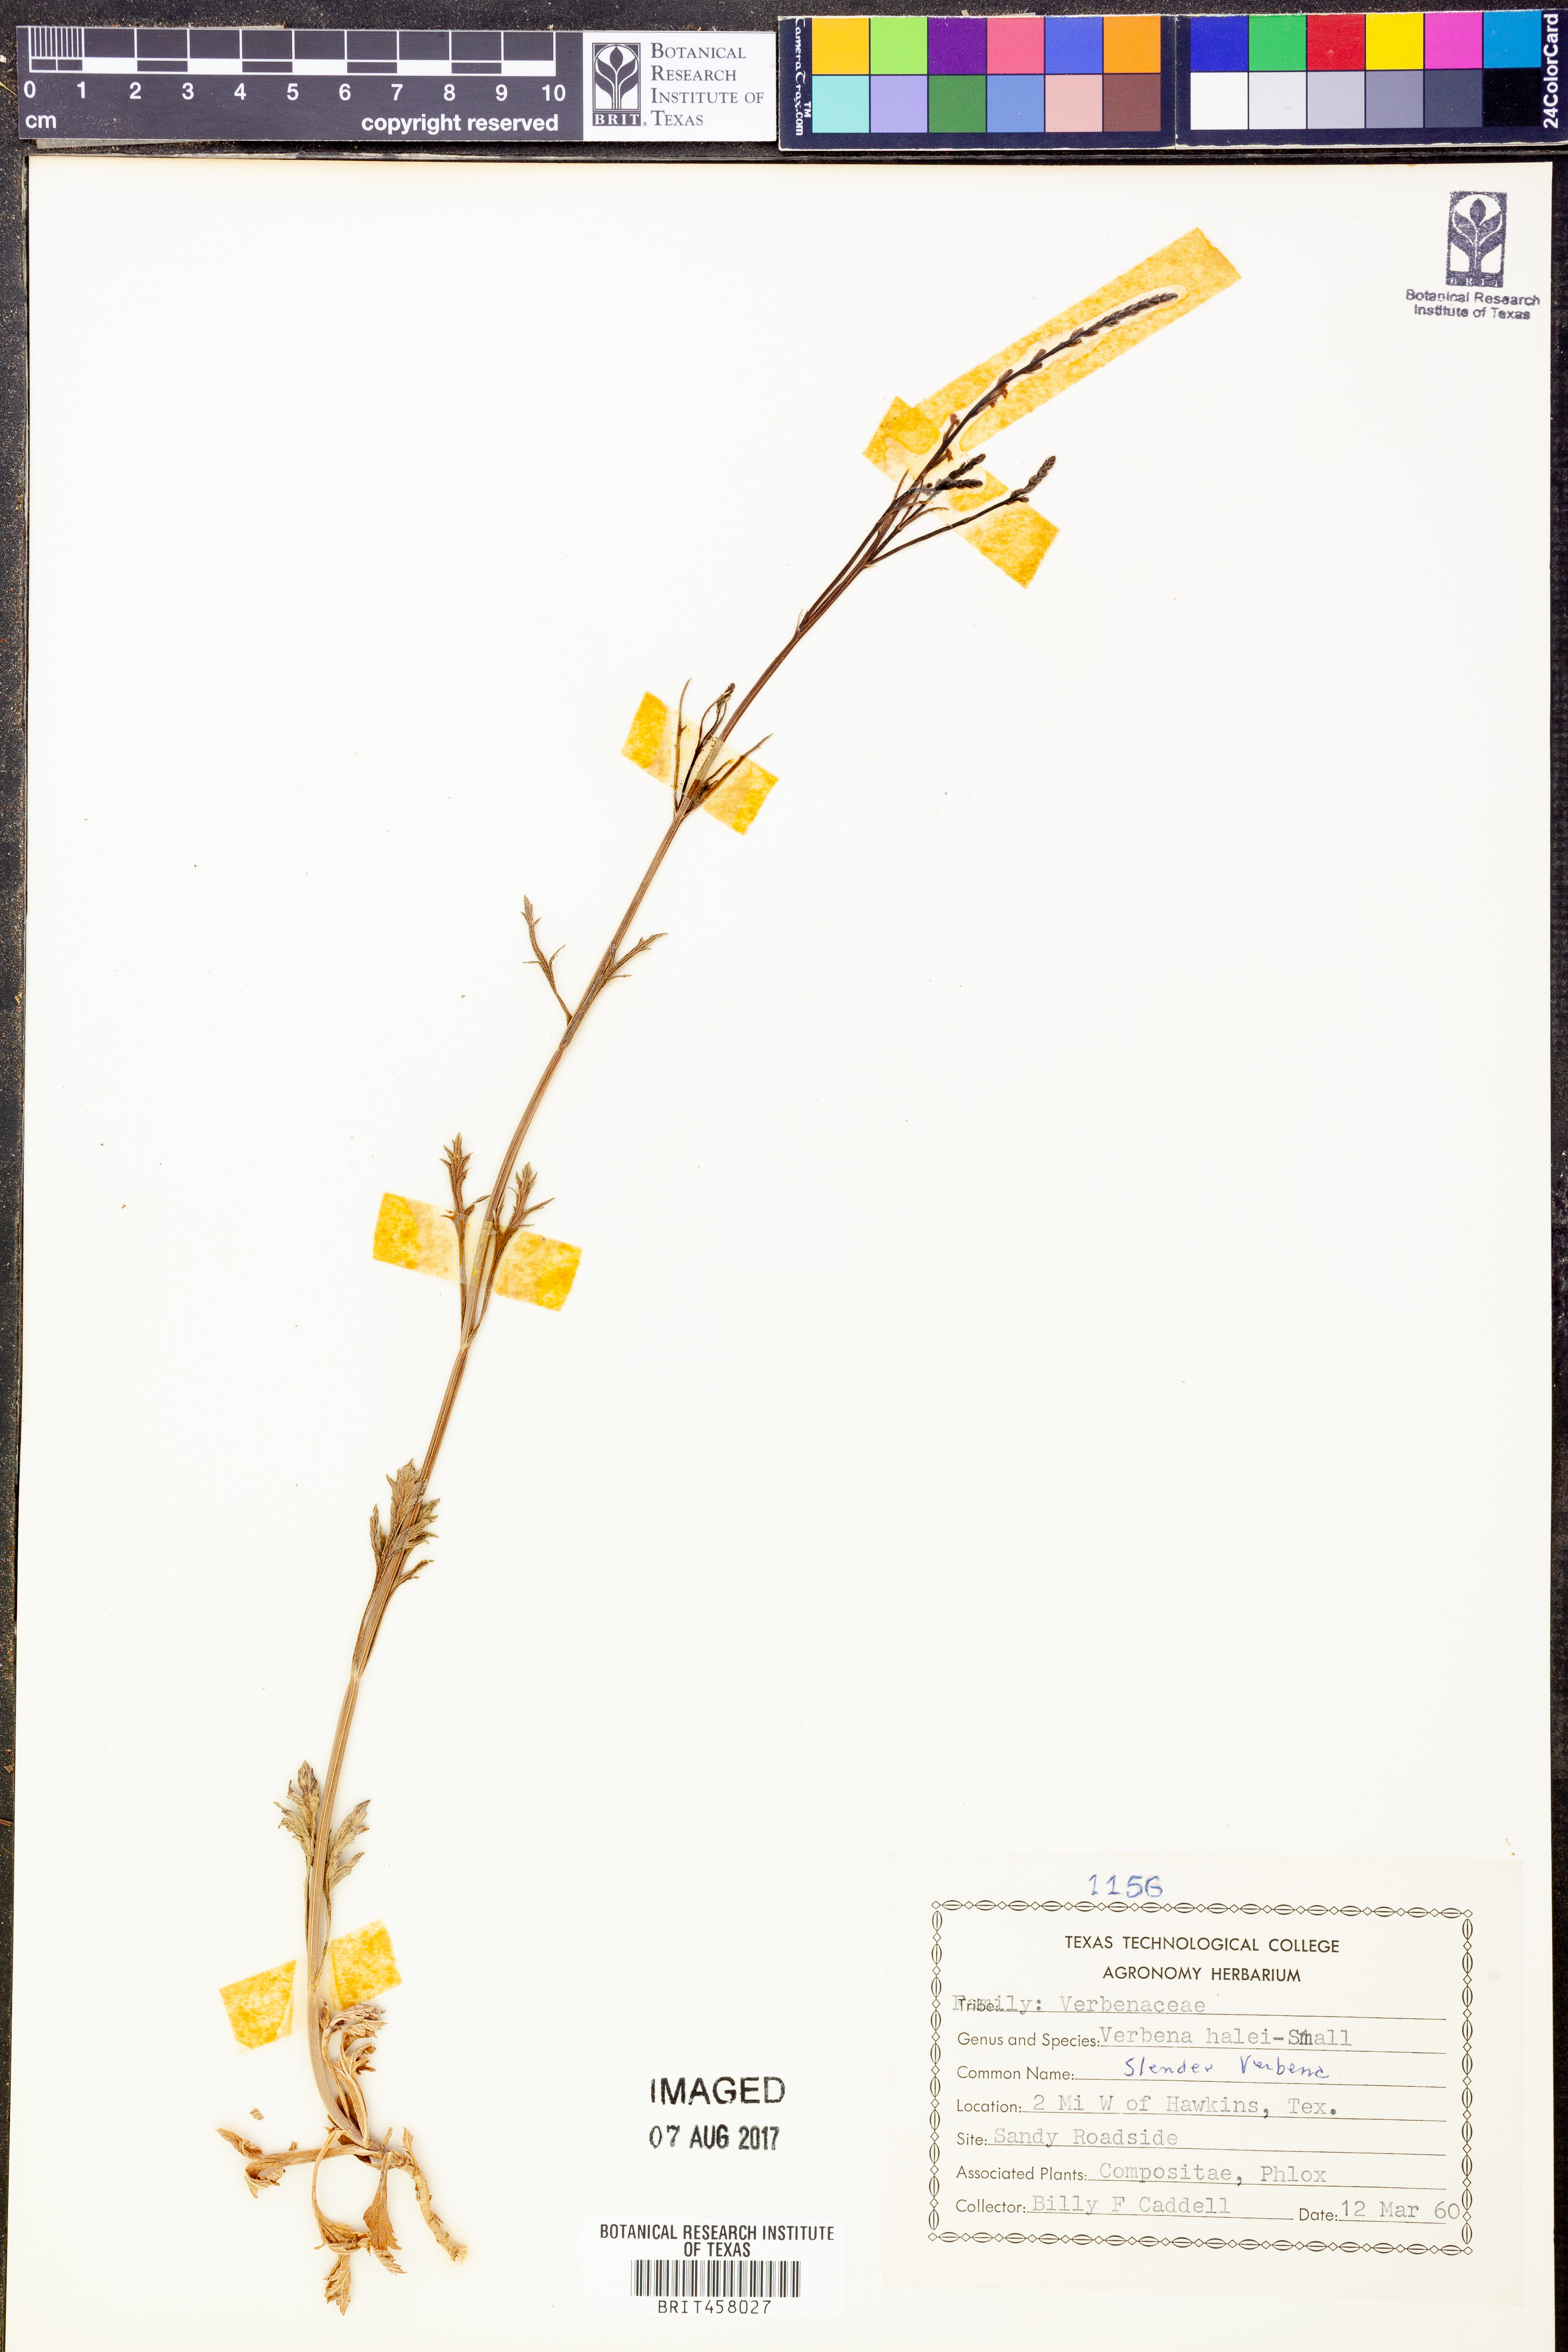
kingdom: Plantae
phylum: Tracheophyta
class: Magnoliopsida
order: Lamiales
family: Verbenaceae
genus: Verbena
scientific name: Verbena halei
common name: Texas vervain
